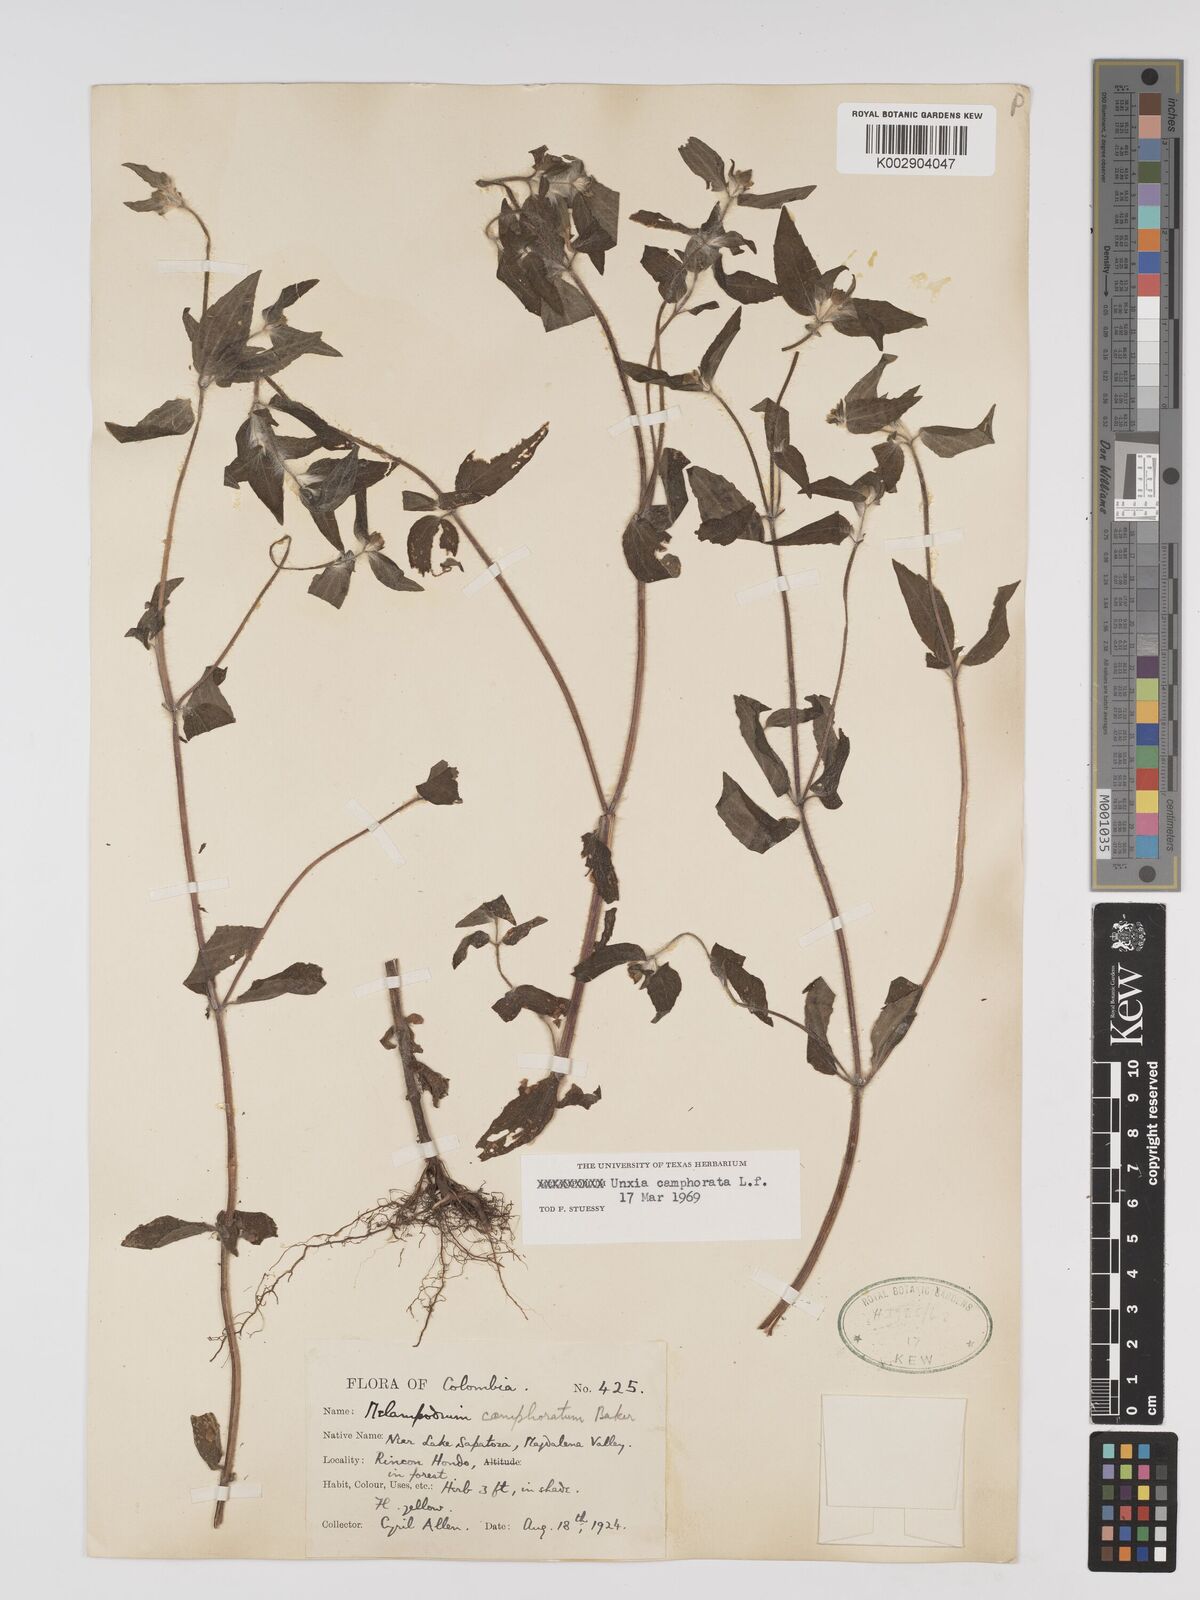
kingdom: Plantae
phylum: Tracheophyta
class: Magnoliopsida
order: Asterales
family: Asteraceae
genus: Unxia
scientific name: Unxia camphorata
